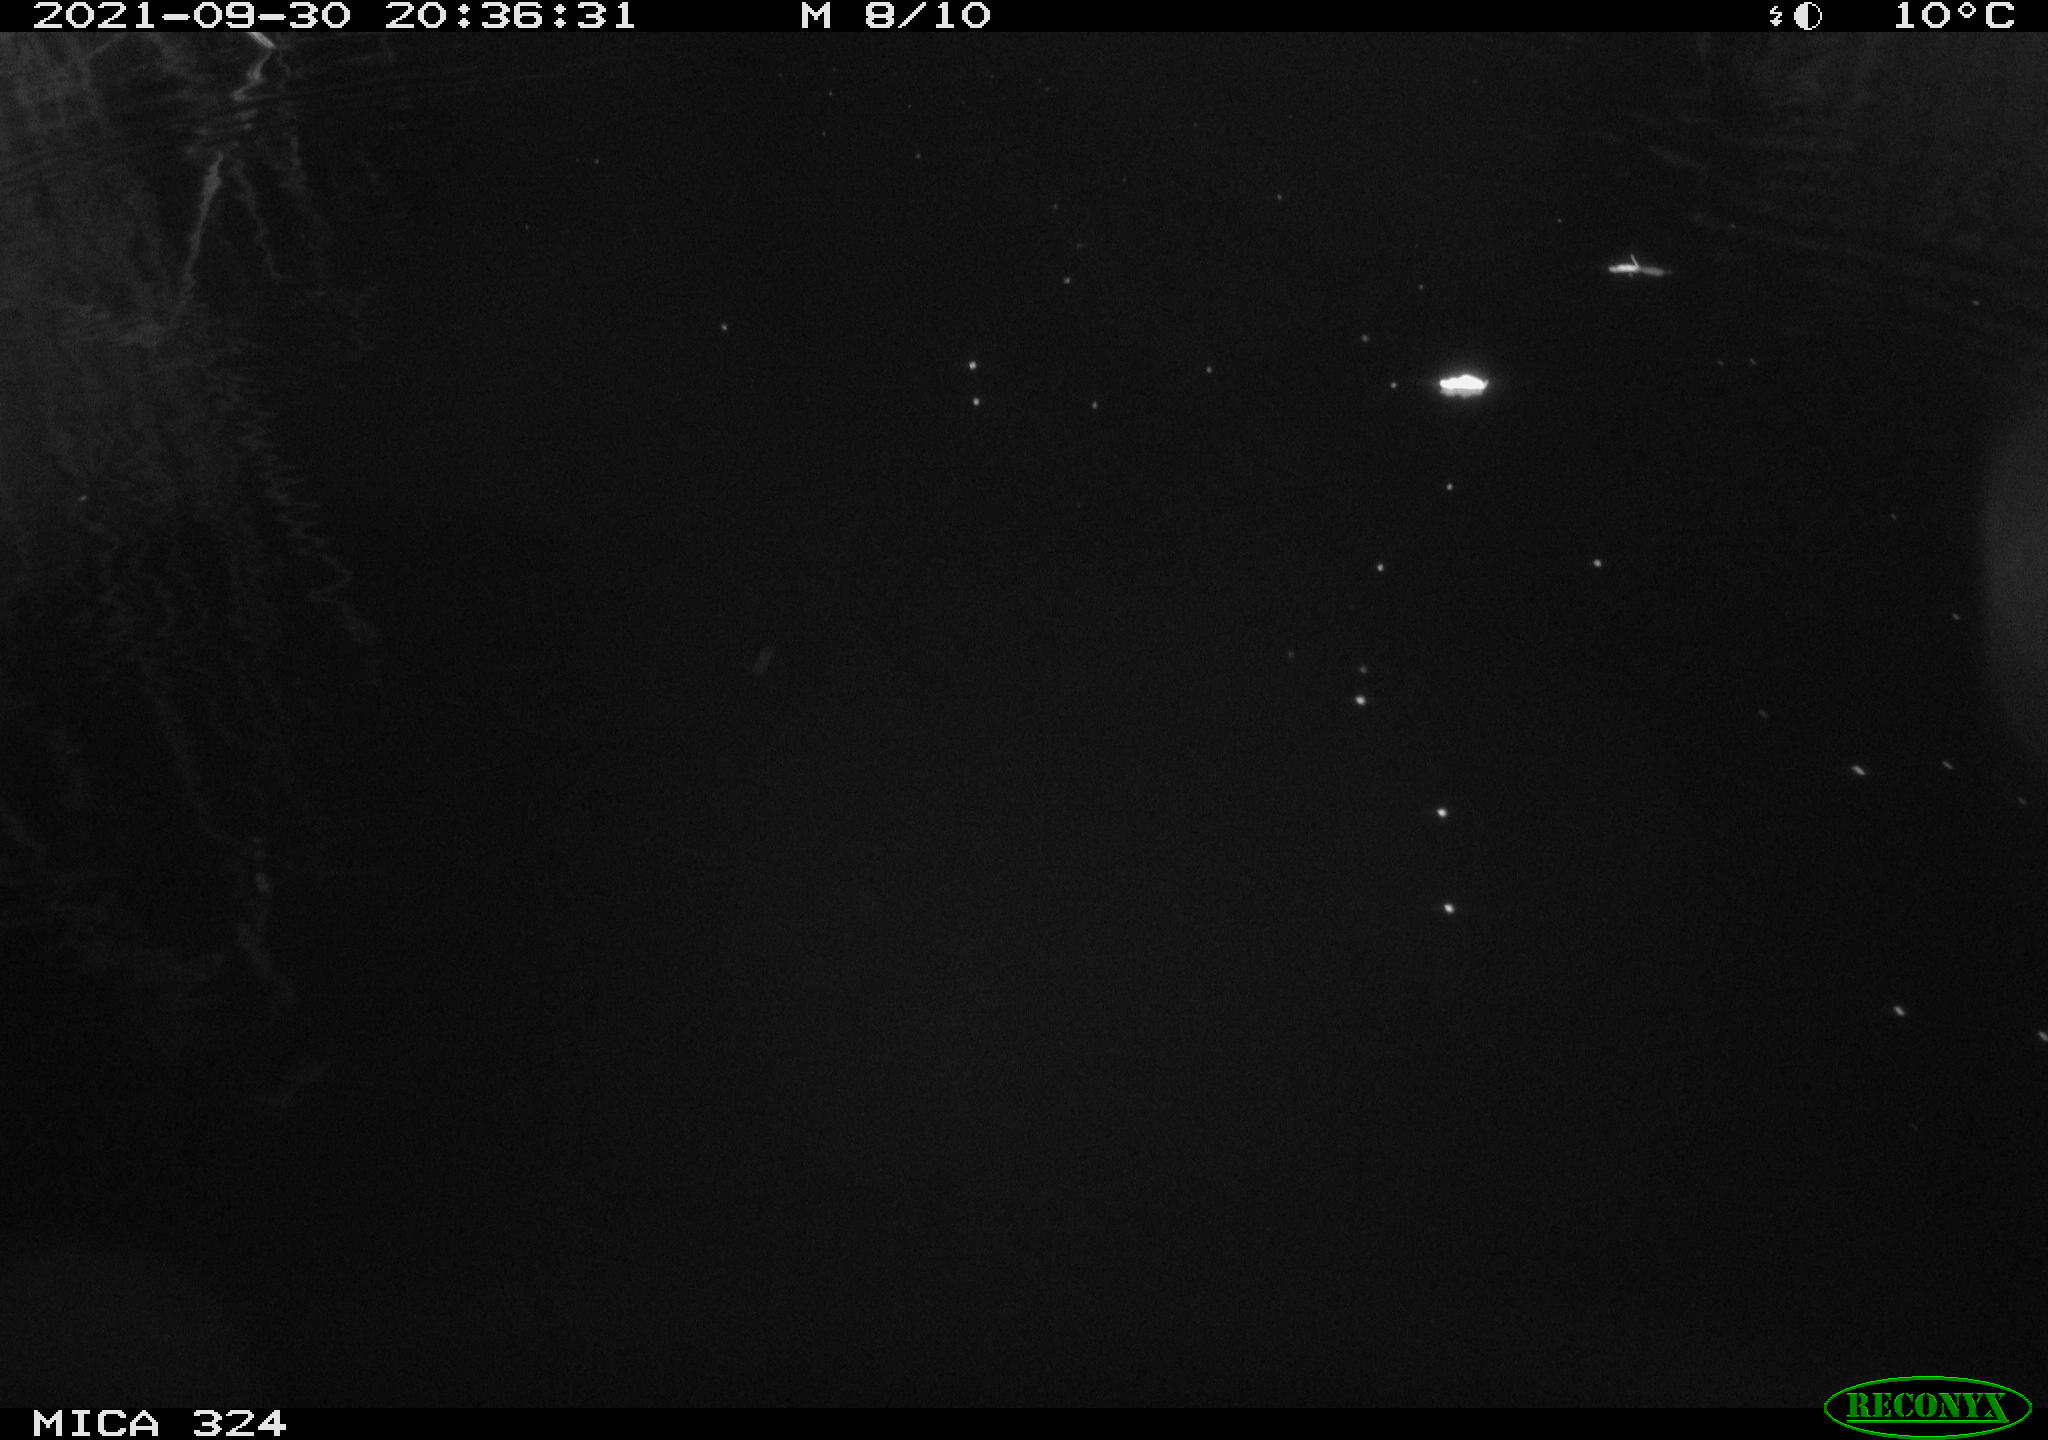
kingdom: Animalia
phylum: Chordata
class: Mammalia
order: Rodentia
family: Cricetidae
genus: Ondatra
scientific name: Ondatra zibethicus
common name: Muskrat
